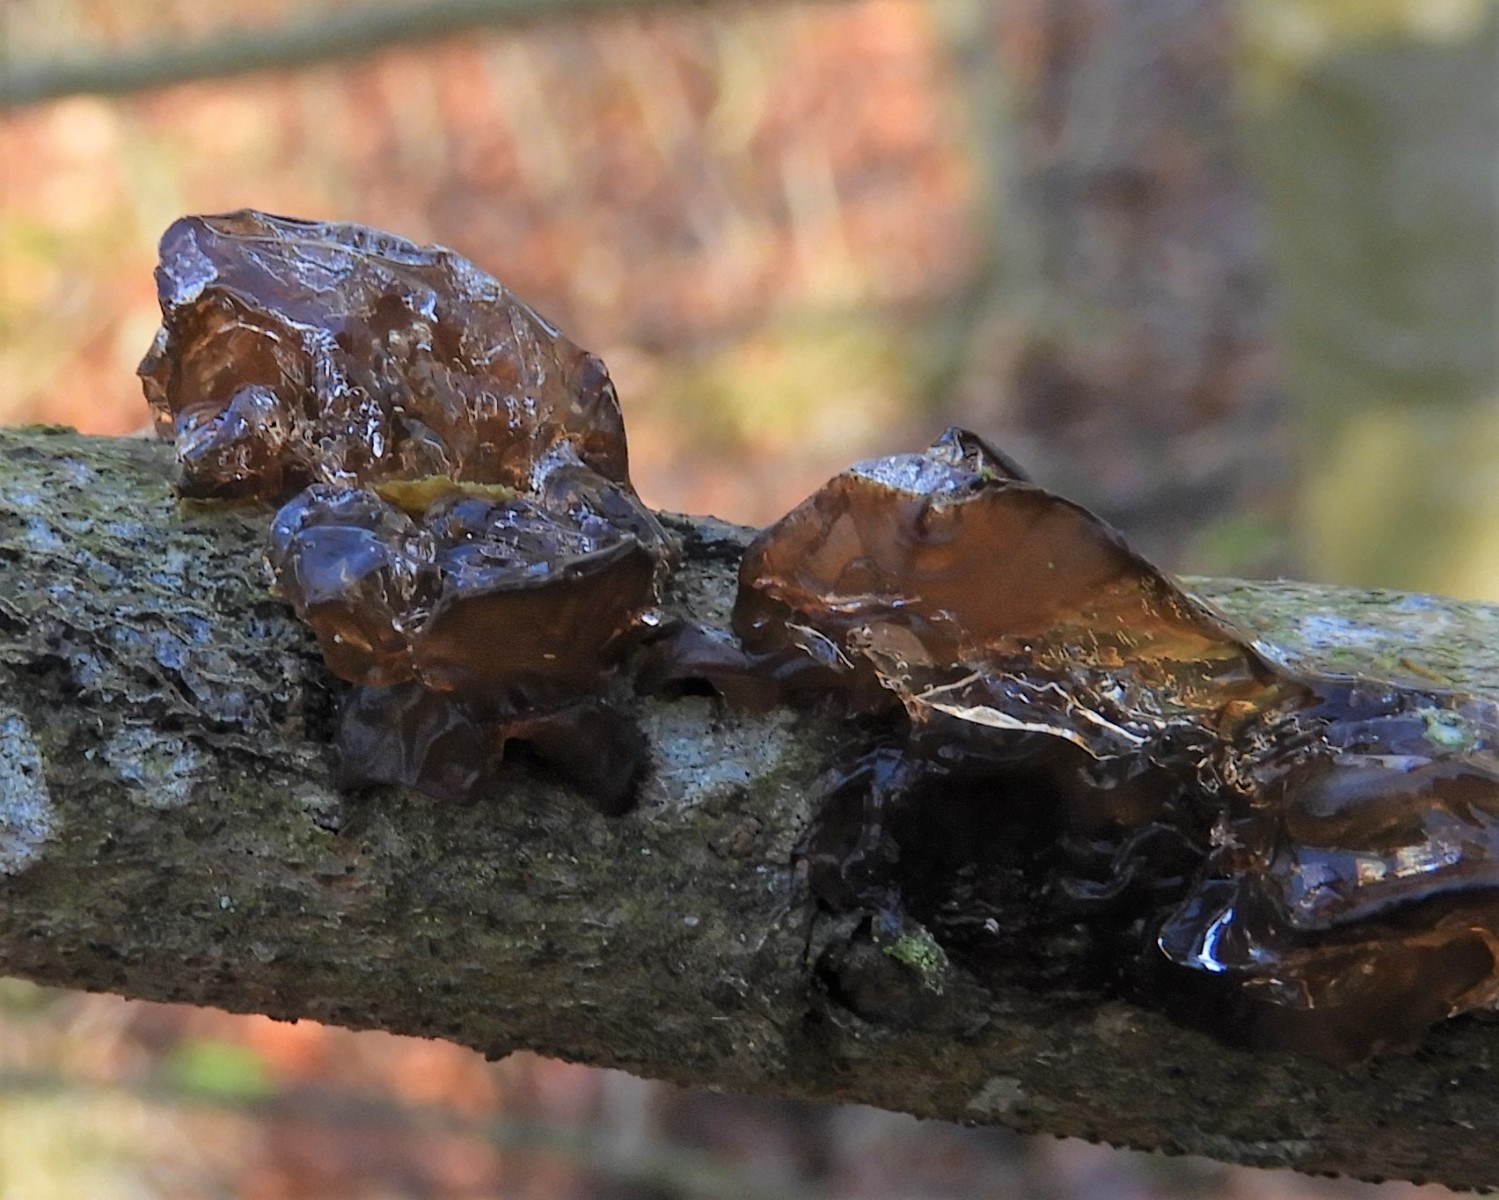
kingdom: Fungi
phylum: Basidiomycota
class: Agaricomycetes
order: Auriculariales
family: Auriculariaceae
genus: Exidia
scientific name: Exidia recisa
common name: pile-bævretop
